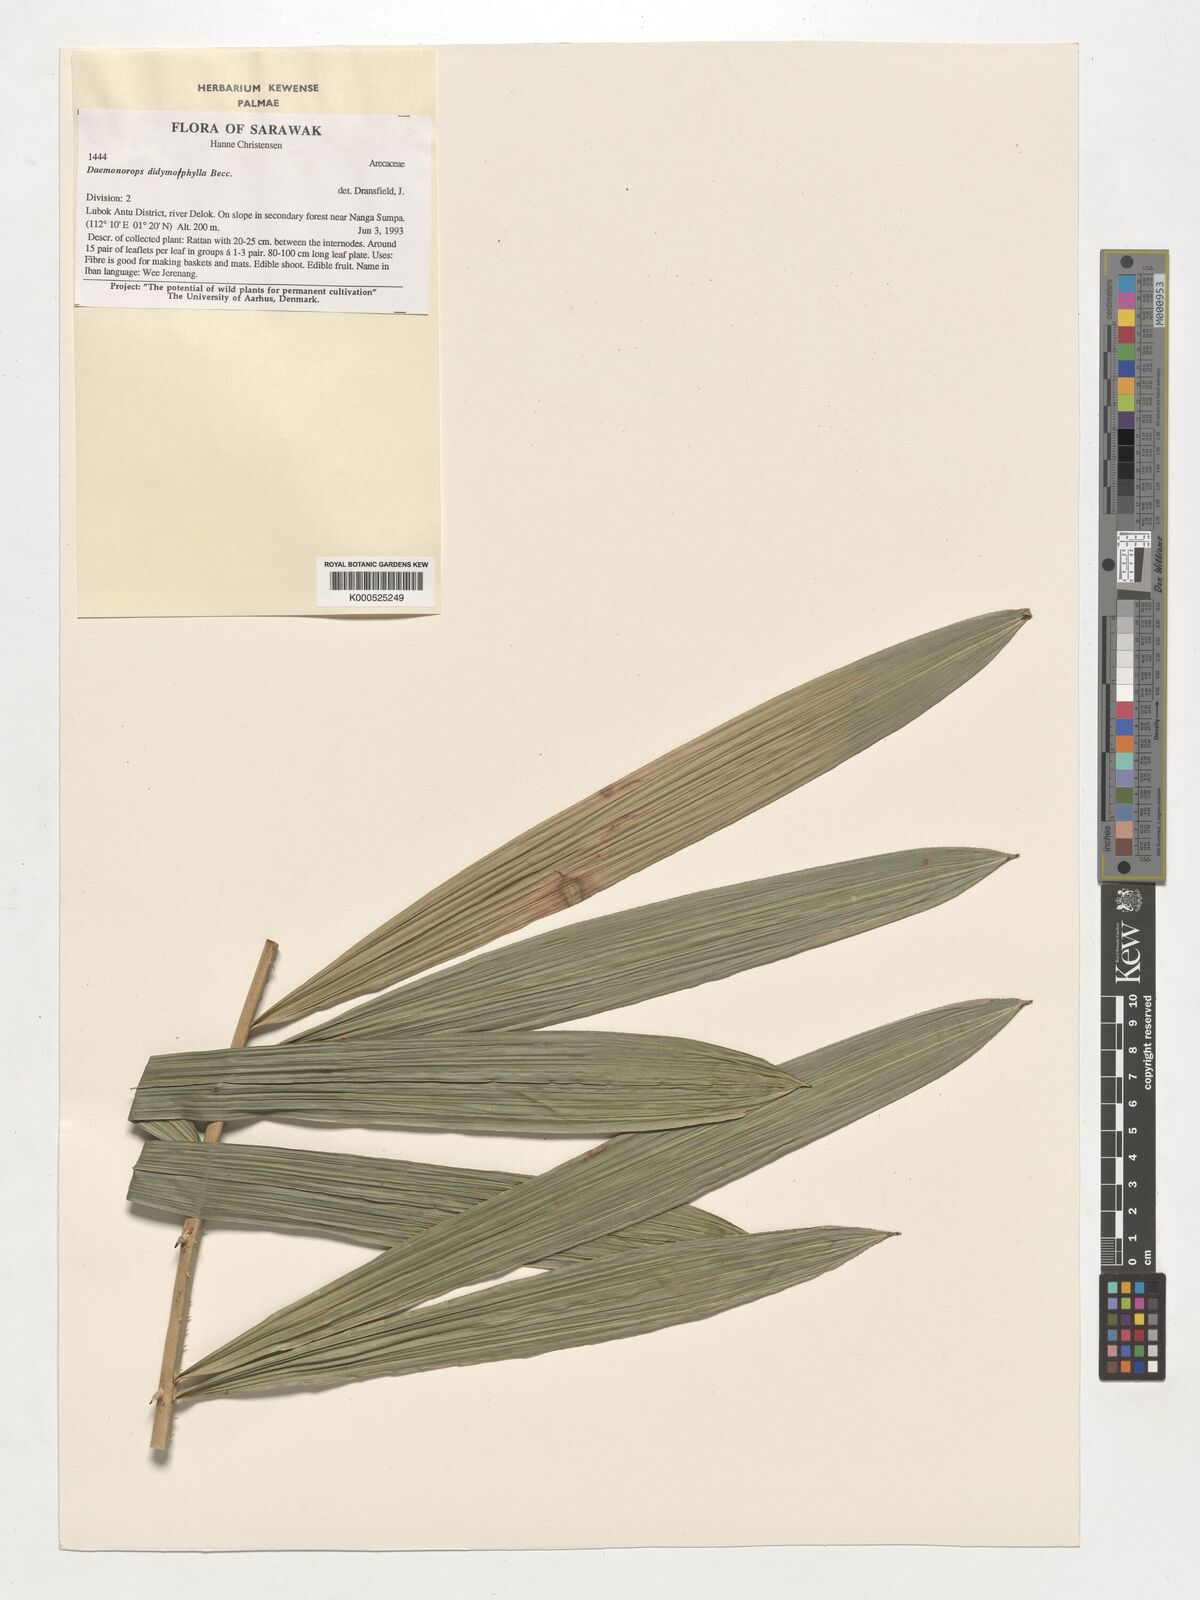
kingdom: Plantae
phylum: Tracheophyta
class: Liliopsida
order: Arecales
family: Arecaceae
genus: Calamus
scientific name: Calamus gracilipes
